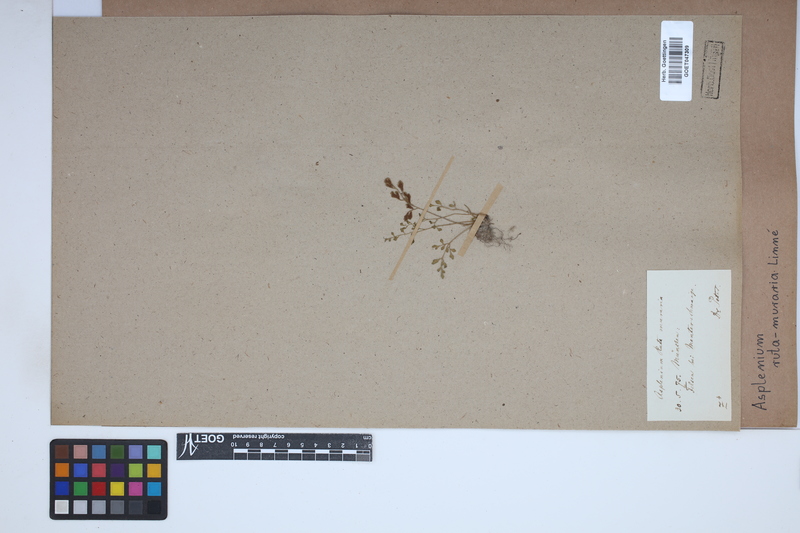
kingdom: Plantae
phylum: Tracheophyta
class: Polypodiopsida
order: Polypodiales
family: Aspleniaceae
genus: Asplenium
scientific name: Asplenium ruta-muraria
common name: Wall-rue
